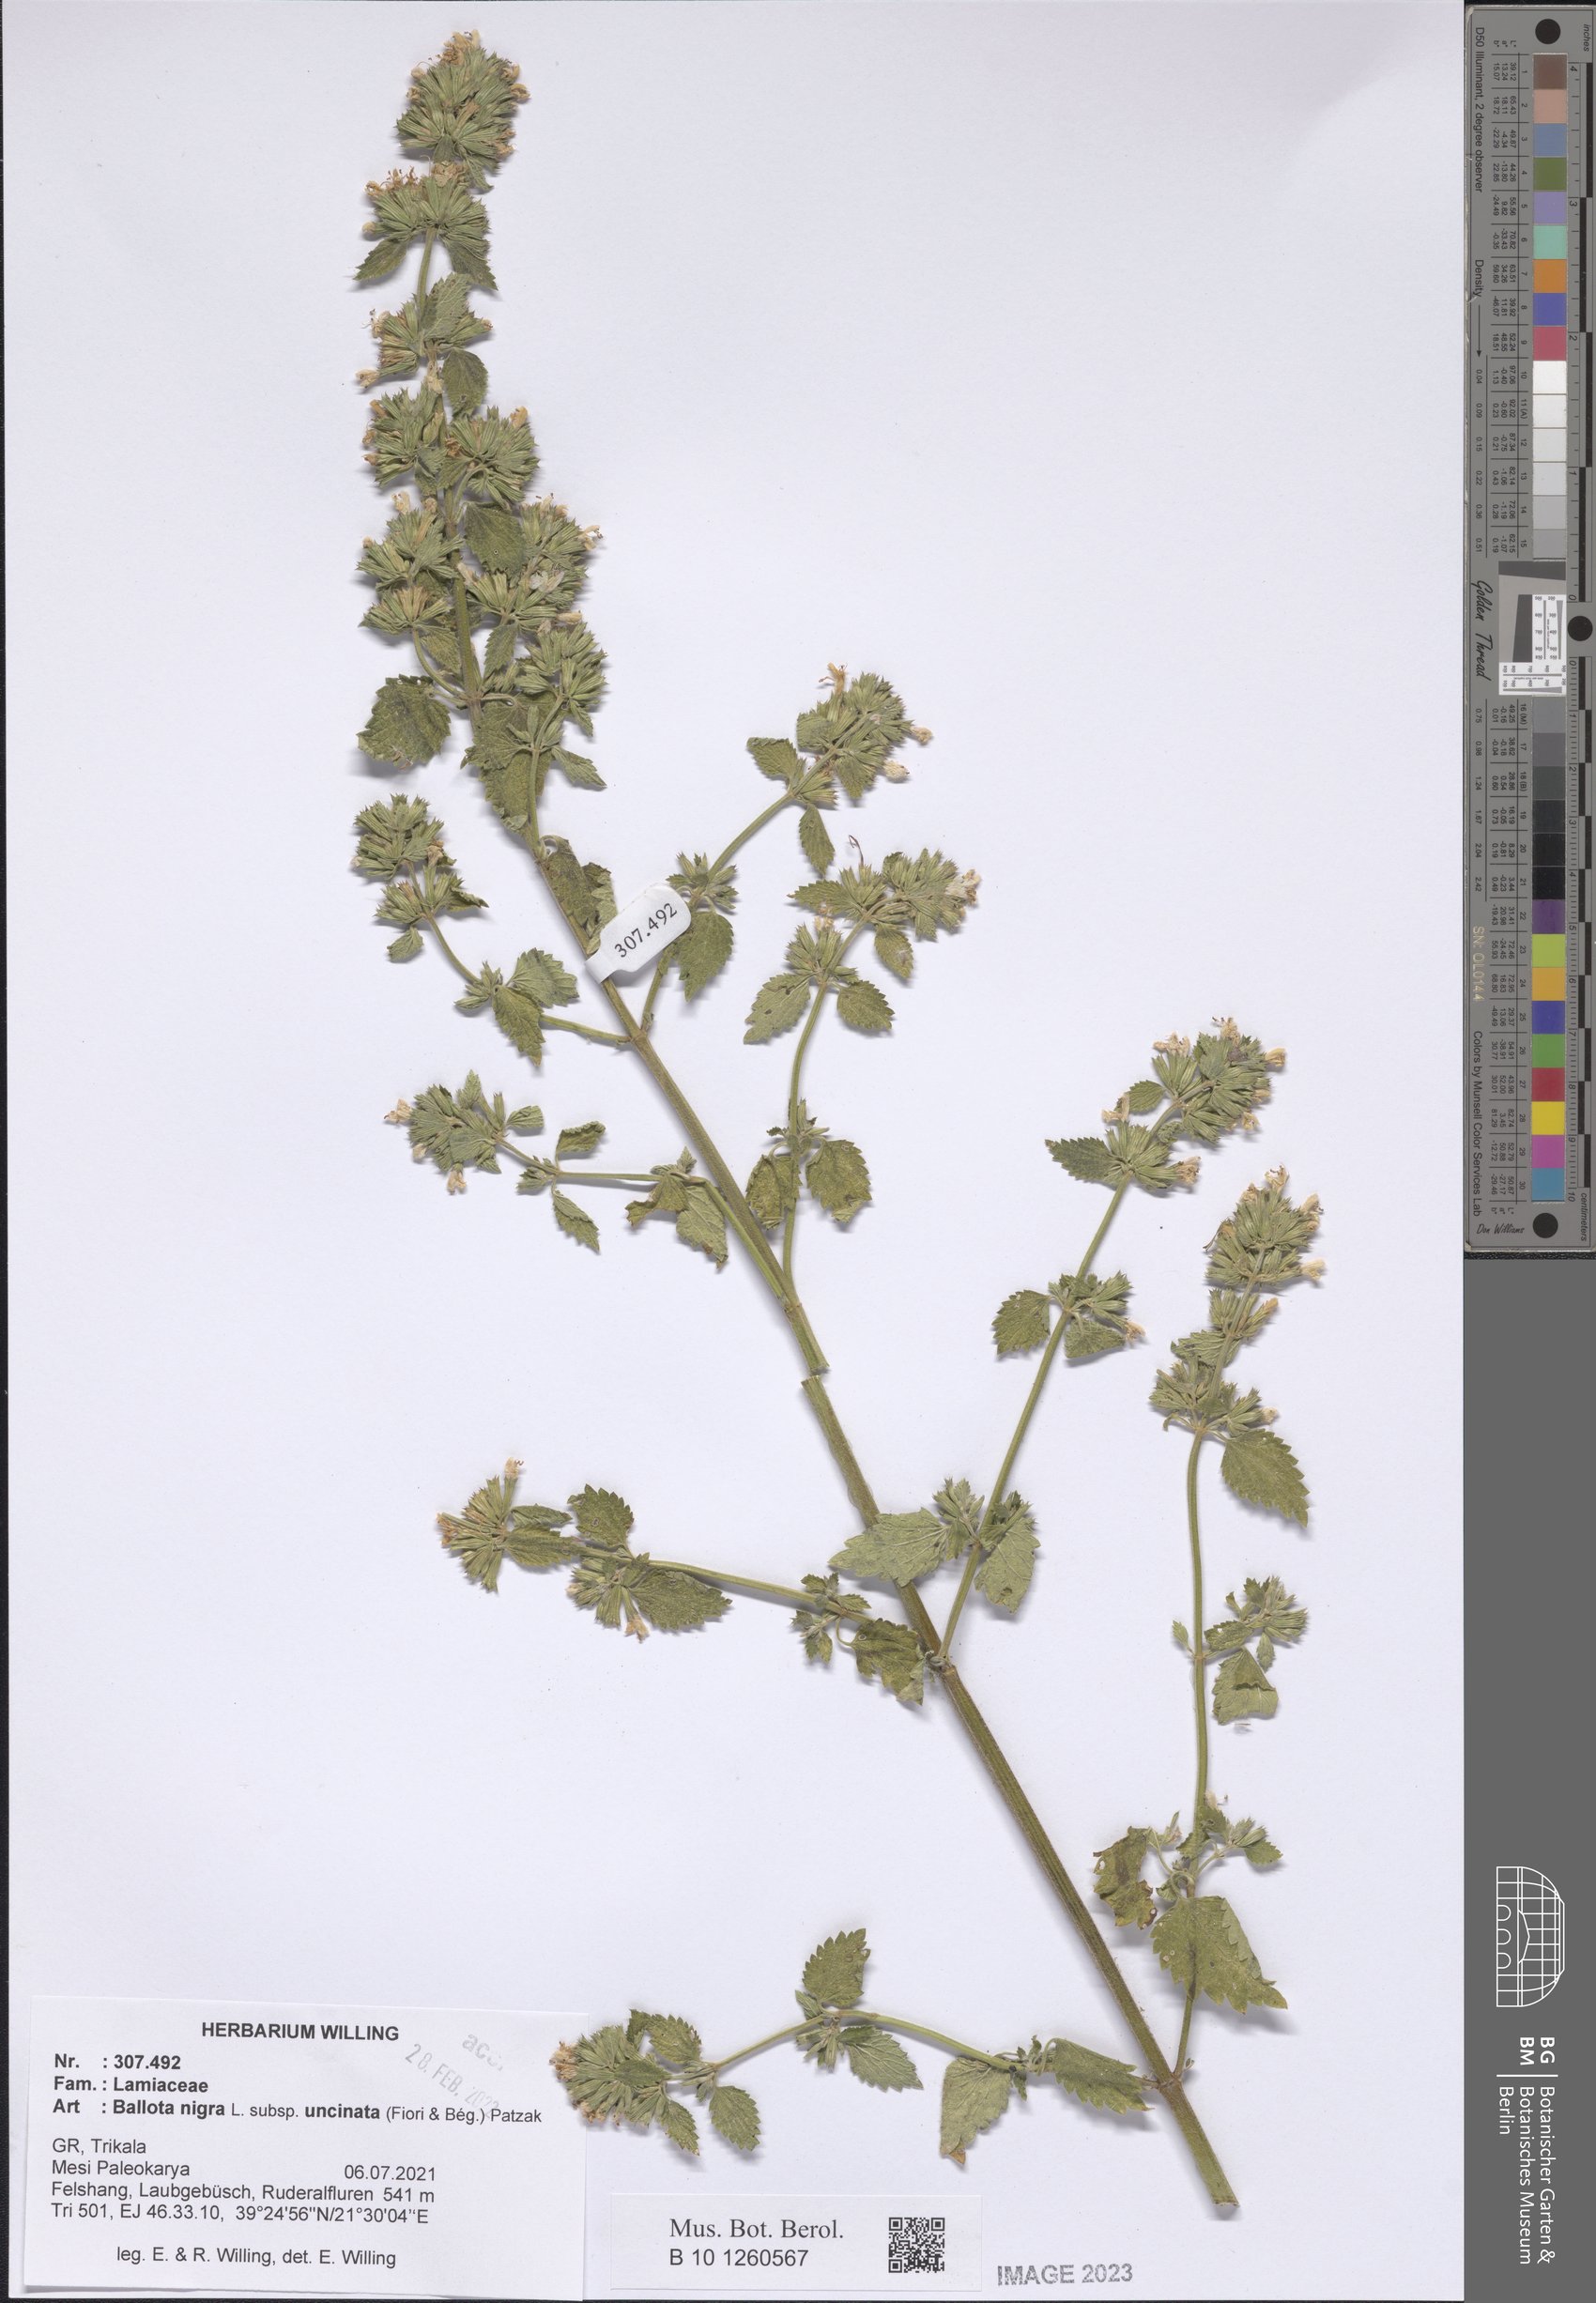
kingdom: Plantae
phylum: Tracheophyta
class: Magnoliopsida
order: Lamiales
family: Lamiaceae
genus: Ballota
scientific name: Ballota nigra
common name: Black horehound
